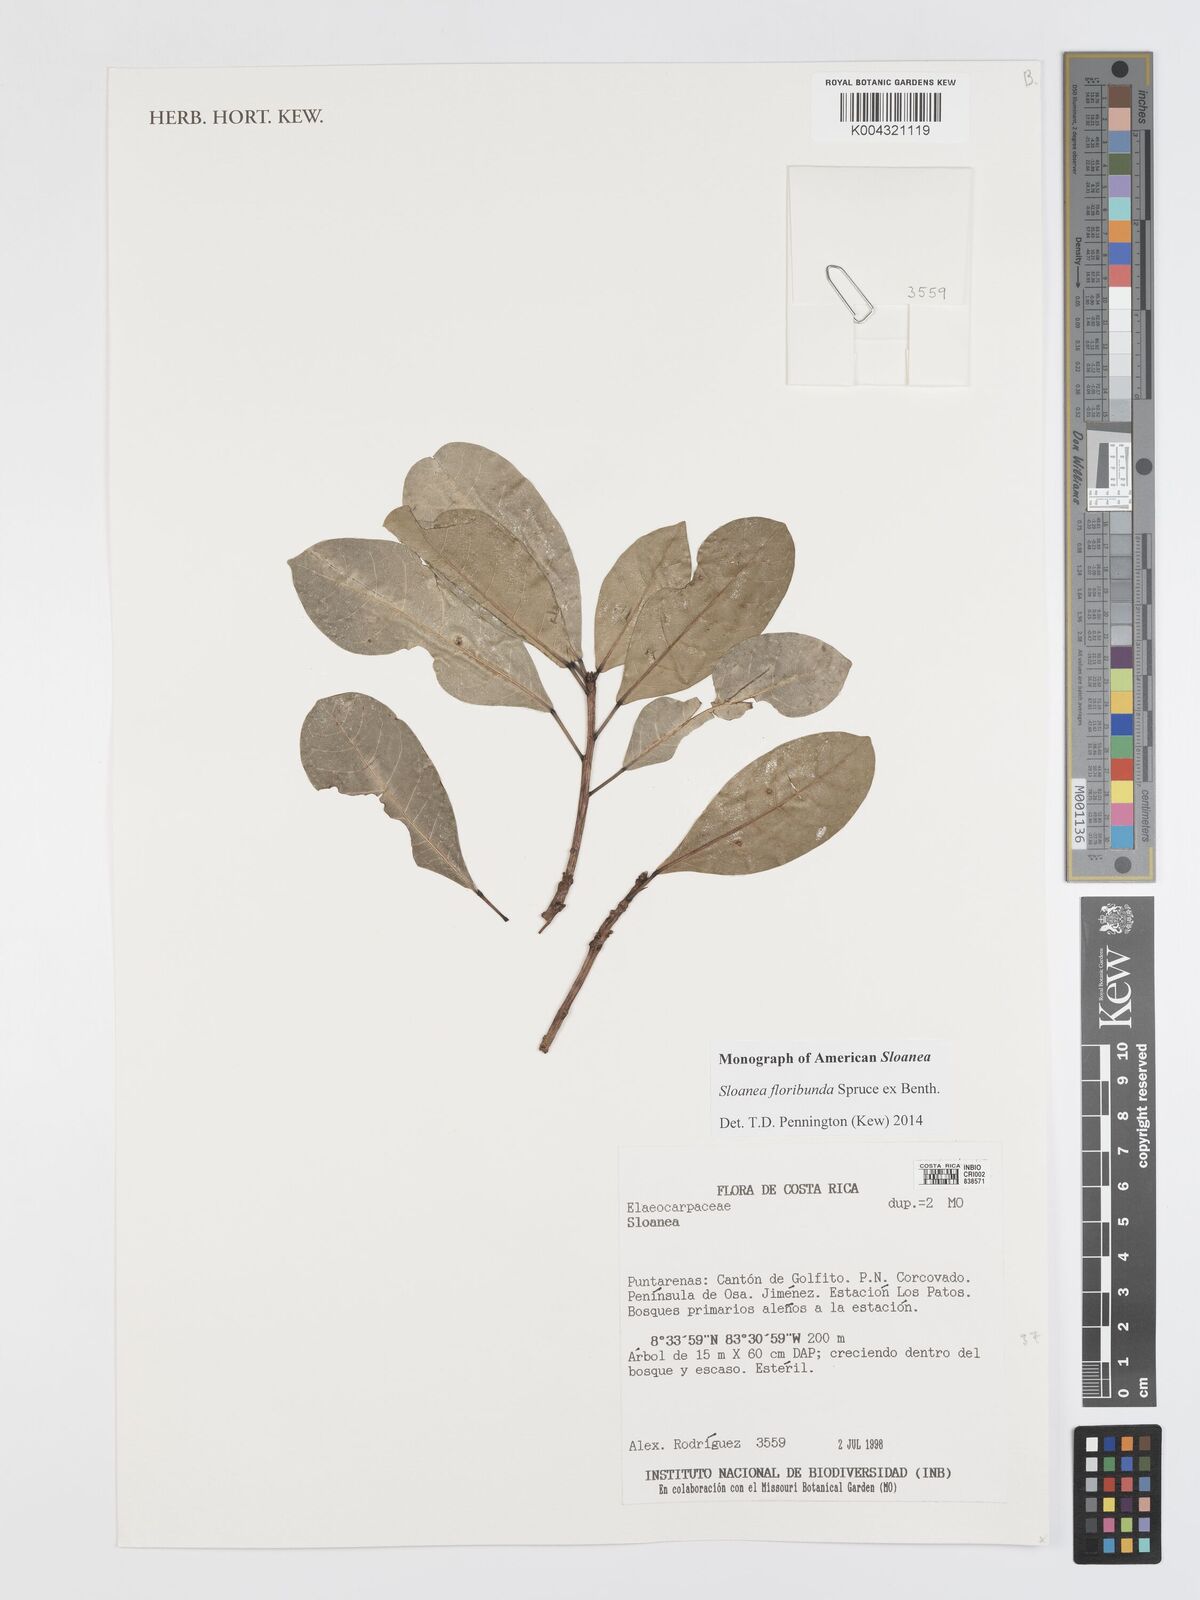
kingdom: Plantae
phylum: Tracheophyta
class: Magnoliopsida
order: Oxalidales
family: Elaeocarpaceae
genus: Sloanea
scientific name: Sloanea floribunda
